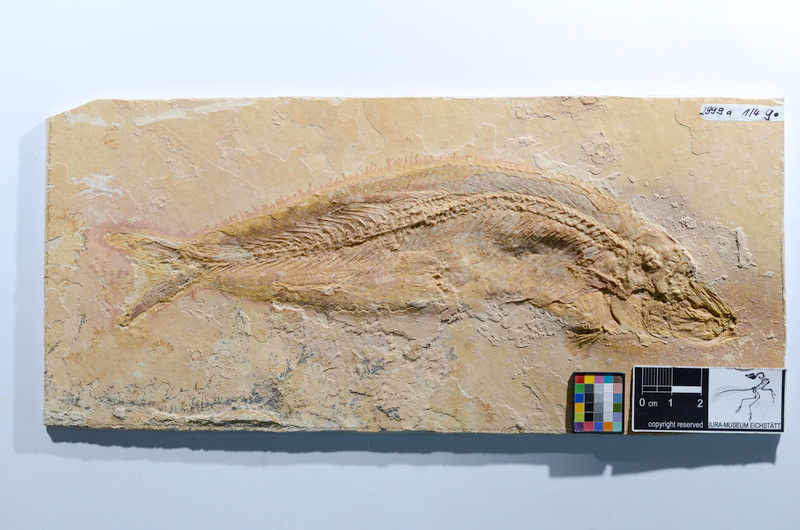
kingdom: Animalia
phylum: Chordata
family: Ascalaboidae
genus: Tharsis
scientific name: Tharsis dubius
